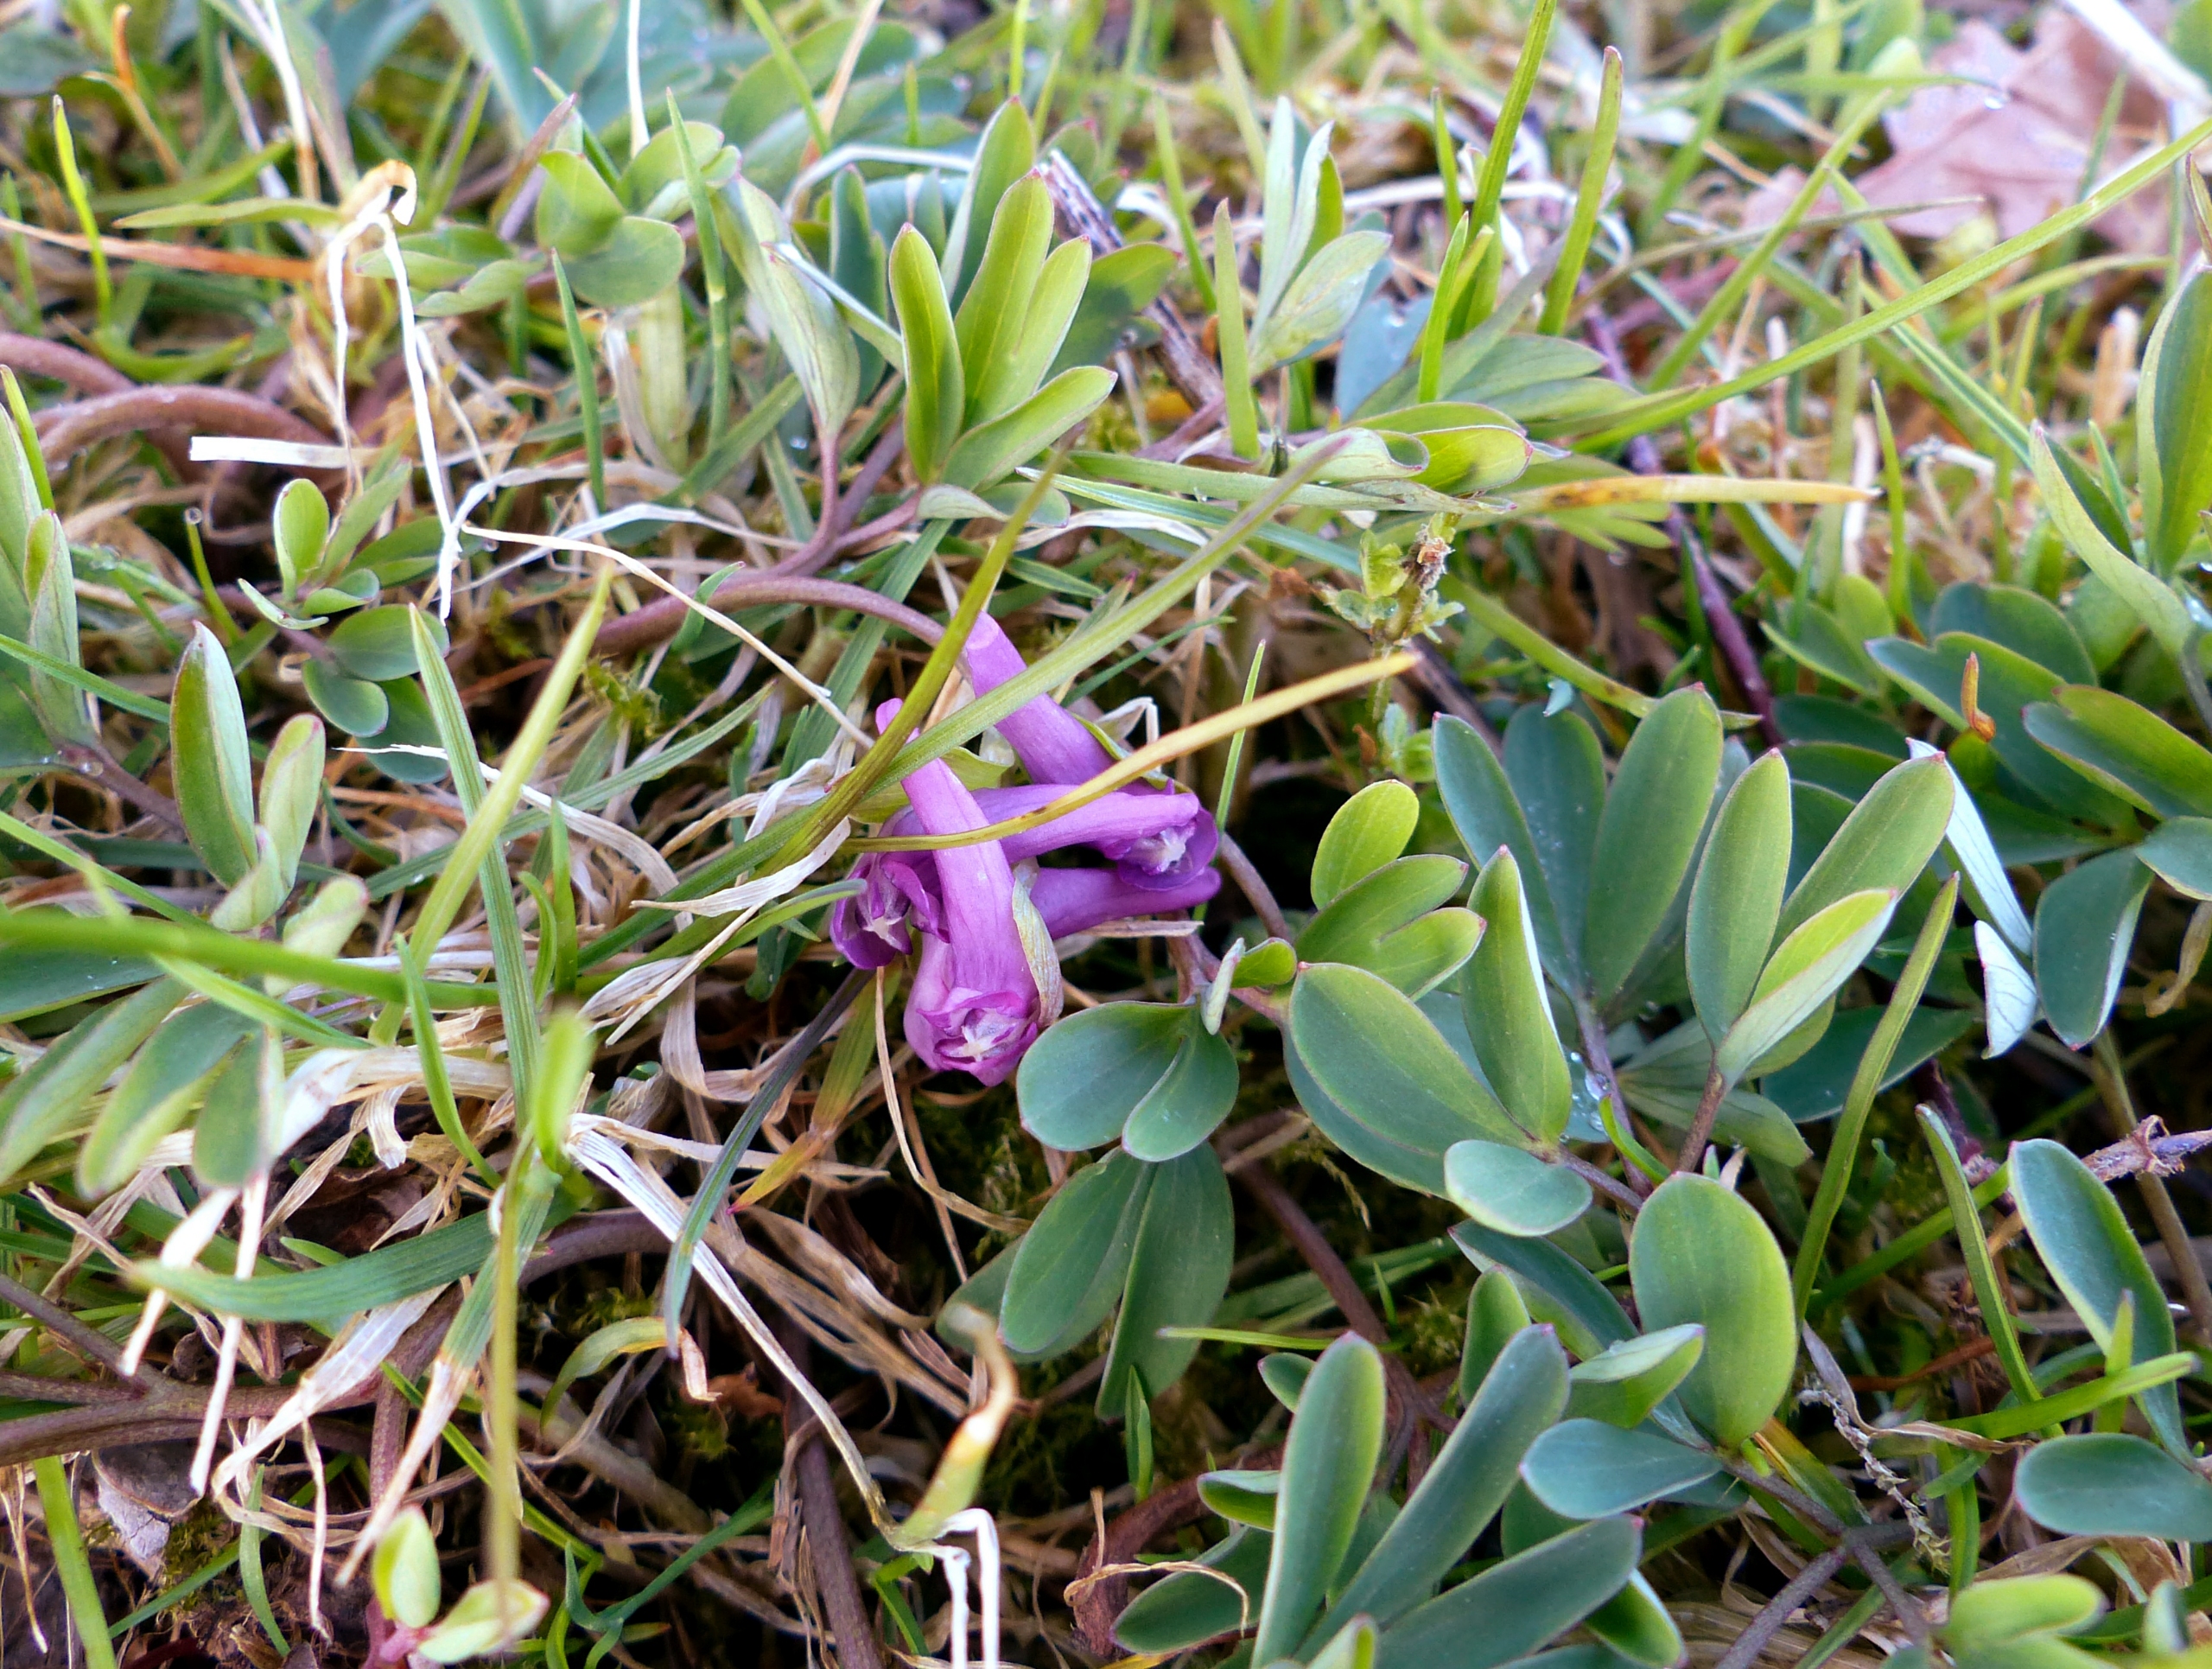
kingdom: Plantae
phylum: Tracheophyta
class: Magnoliopsida
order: Ranunculales
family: Papaveraceae
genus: Corydalis
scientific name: Corydalis intermedia
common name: Liden lærkespore
